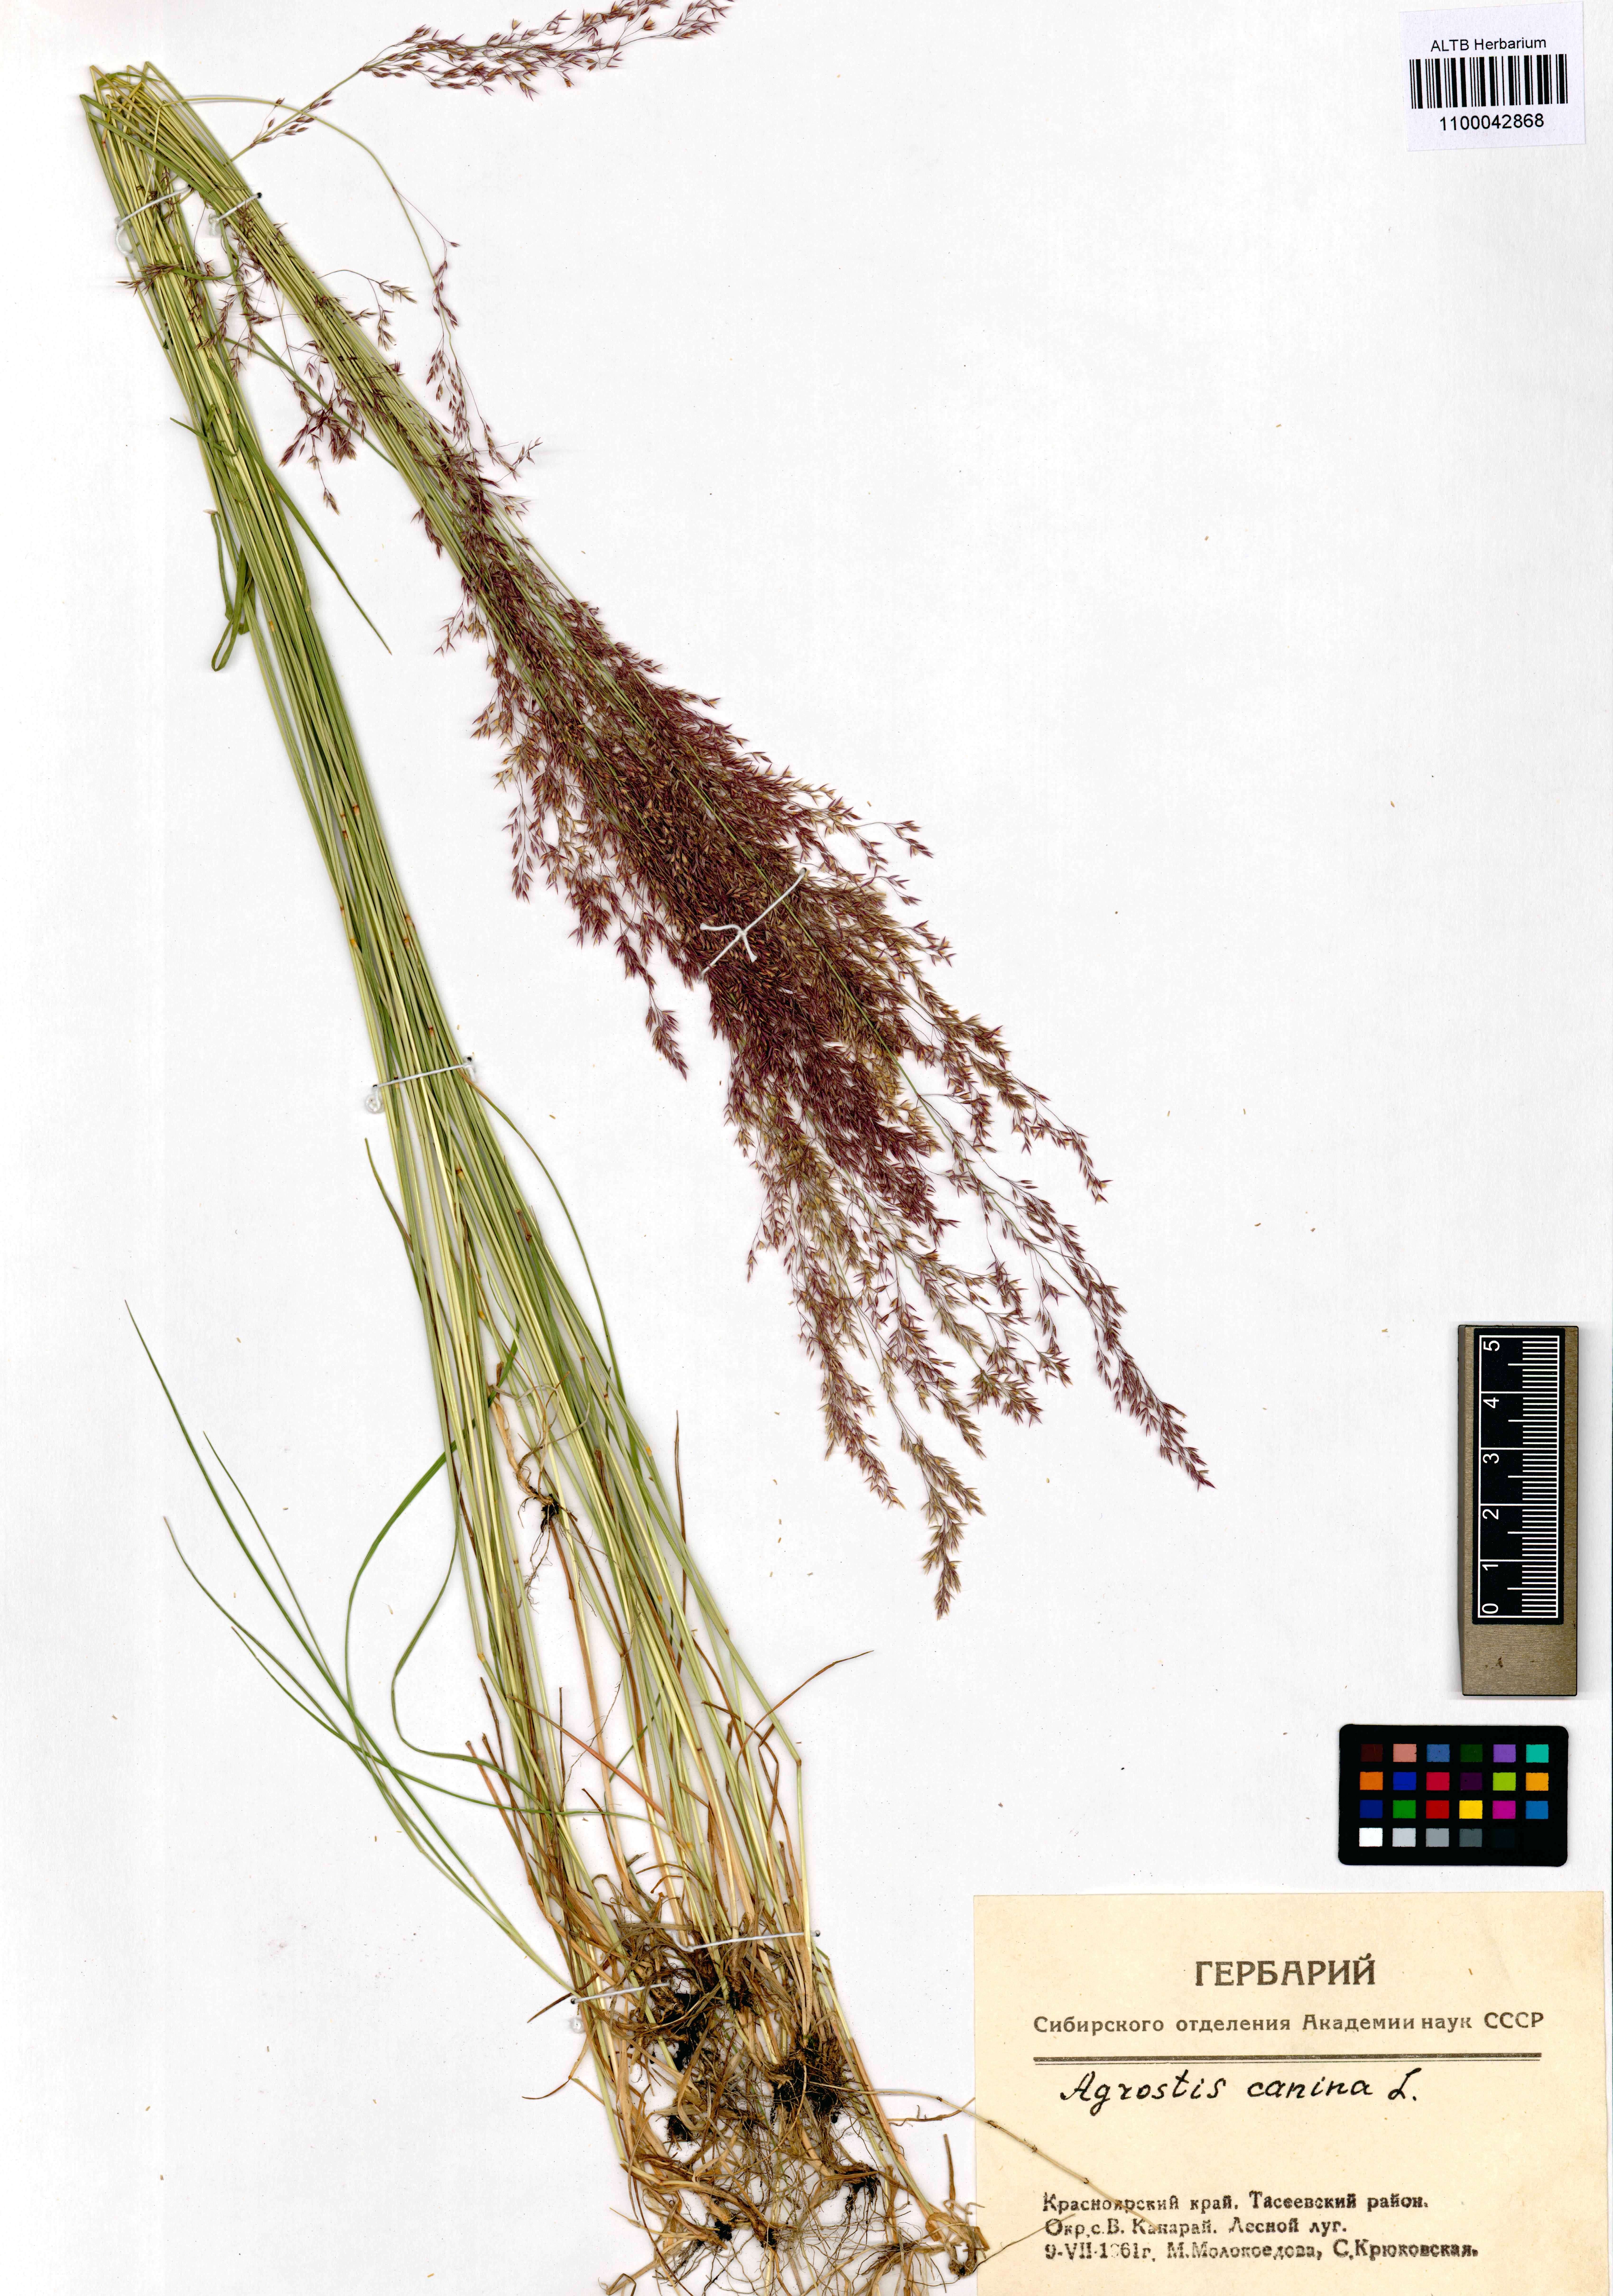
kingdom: Plantae
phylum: Tracheophyta
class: Liliopsida
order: Poales
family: Poaceae
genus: Agrostis
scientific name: Agrostis canina
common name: Velvet bent
